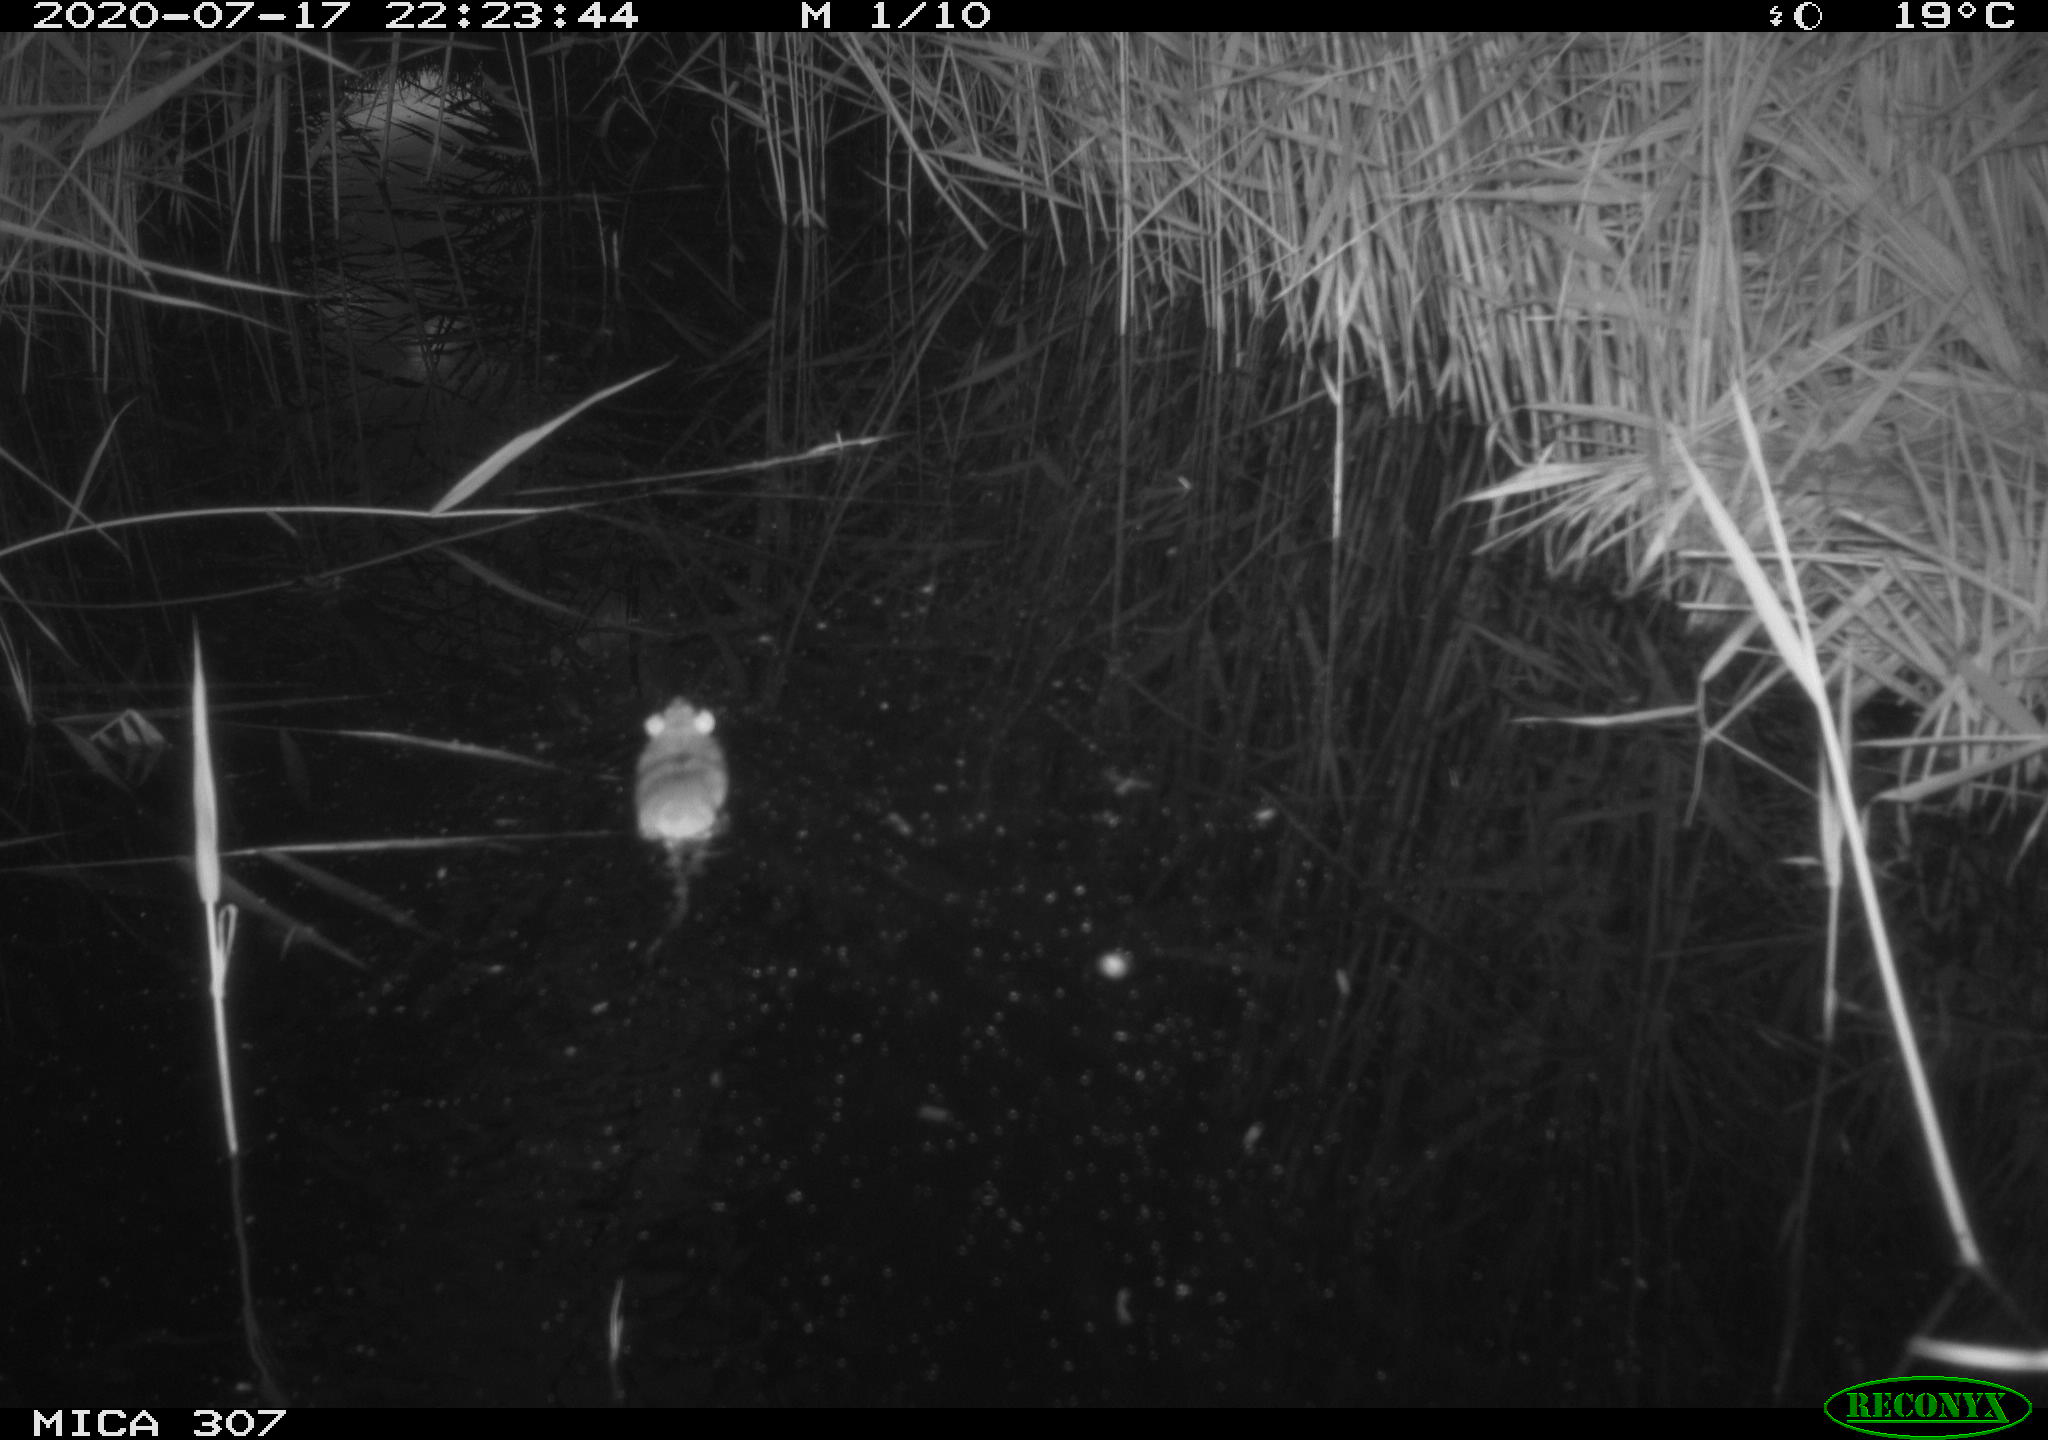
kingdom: Animalia
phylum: Chordata
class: Mammalia
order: Rodentia
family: Muridae
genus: Rattus
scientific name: Rattus norvegicus
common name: Brown rat
